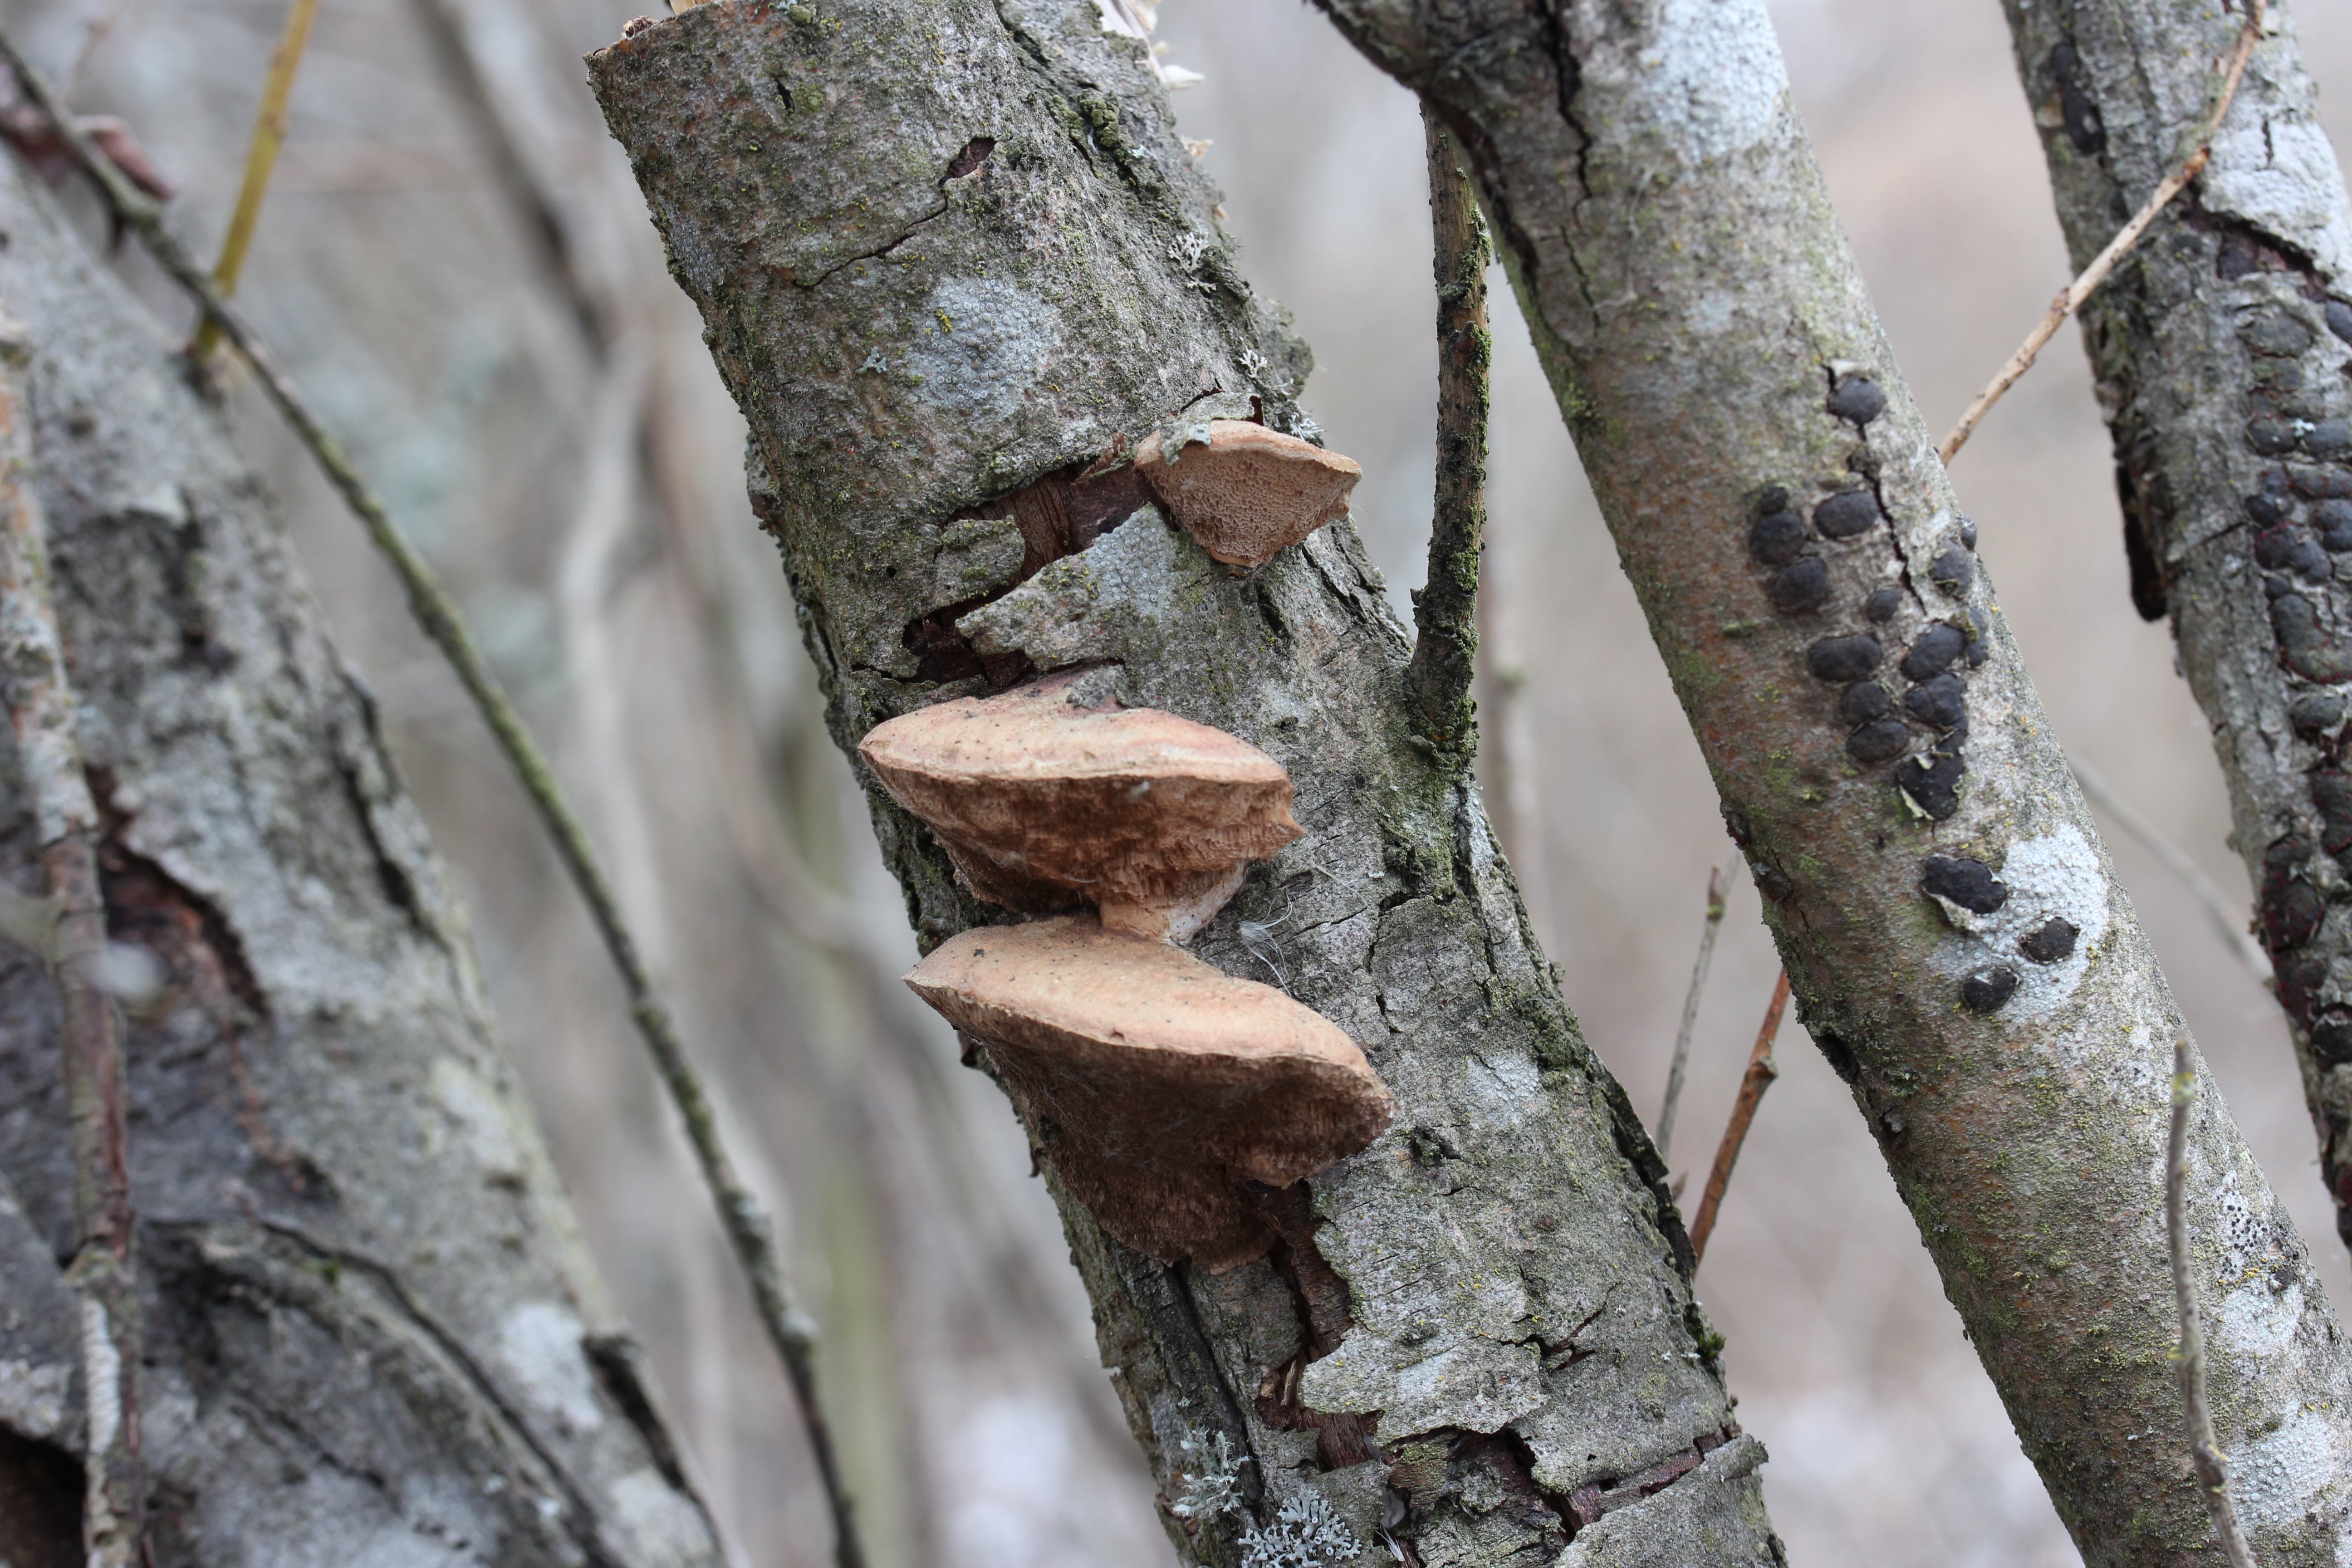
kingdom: Fungi
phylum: Basidiomycota
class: Agaricomycetes
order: Polyporales
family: Phanerochaetaceae
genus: Hapalopilus
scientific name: Hapalopilus rutilans
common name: Tender nesting polypore
